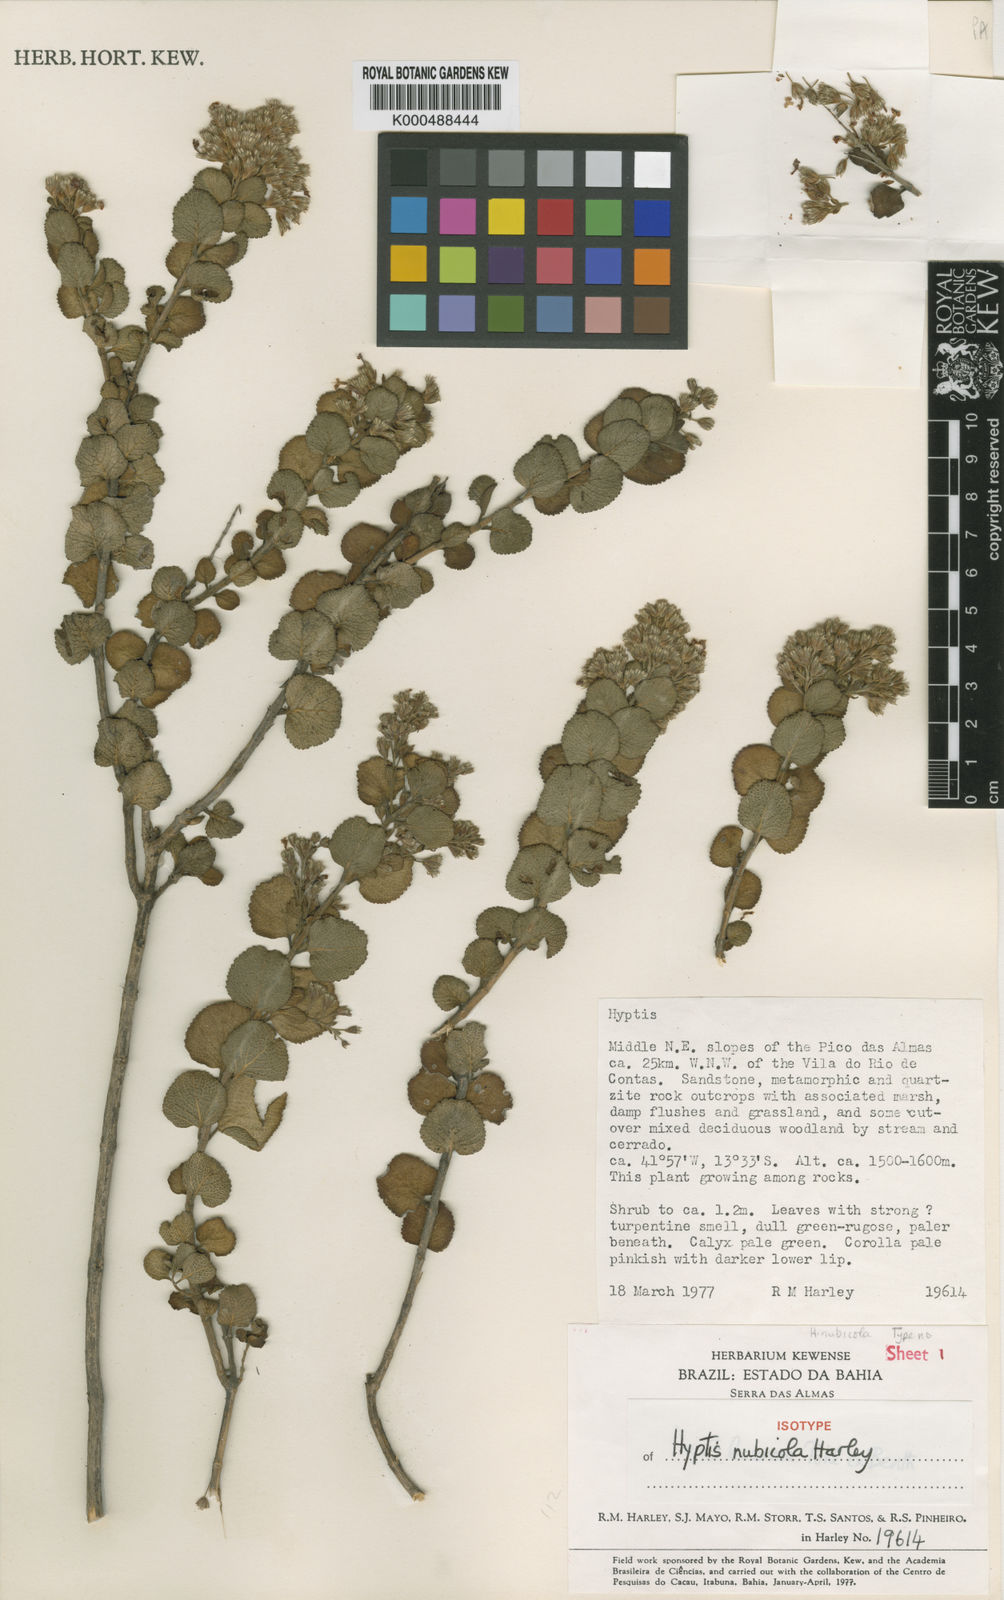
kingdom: Plantae
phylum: Tracheophyta
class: Magnoliopsida
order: Lamiales
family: Lamiaceae
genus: Oocephalus
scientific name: Oocephalus nubicola
